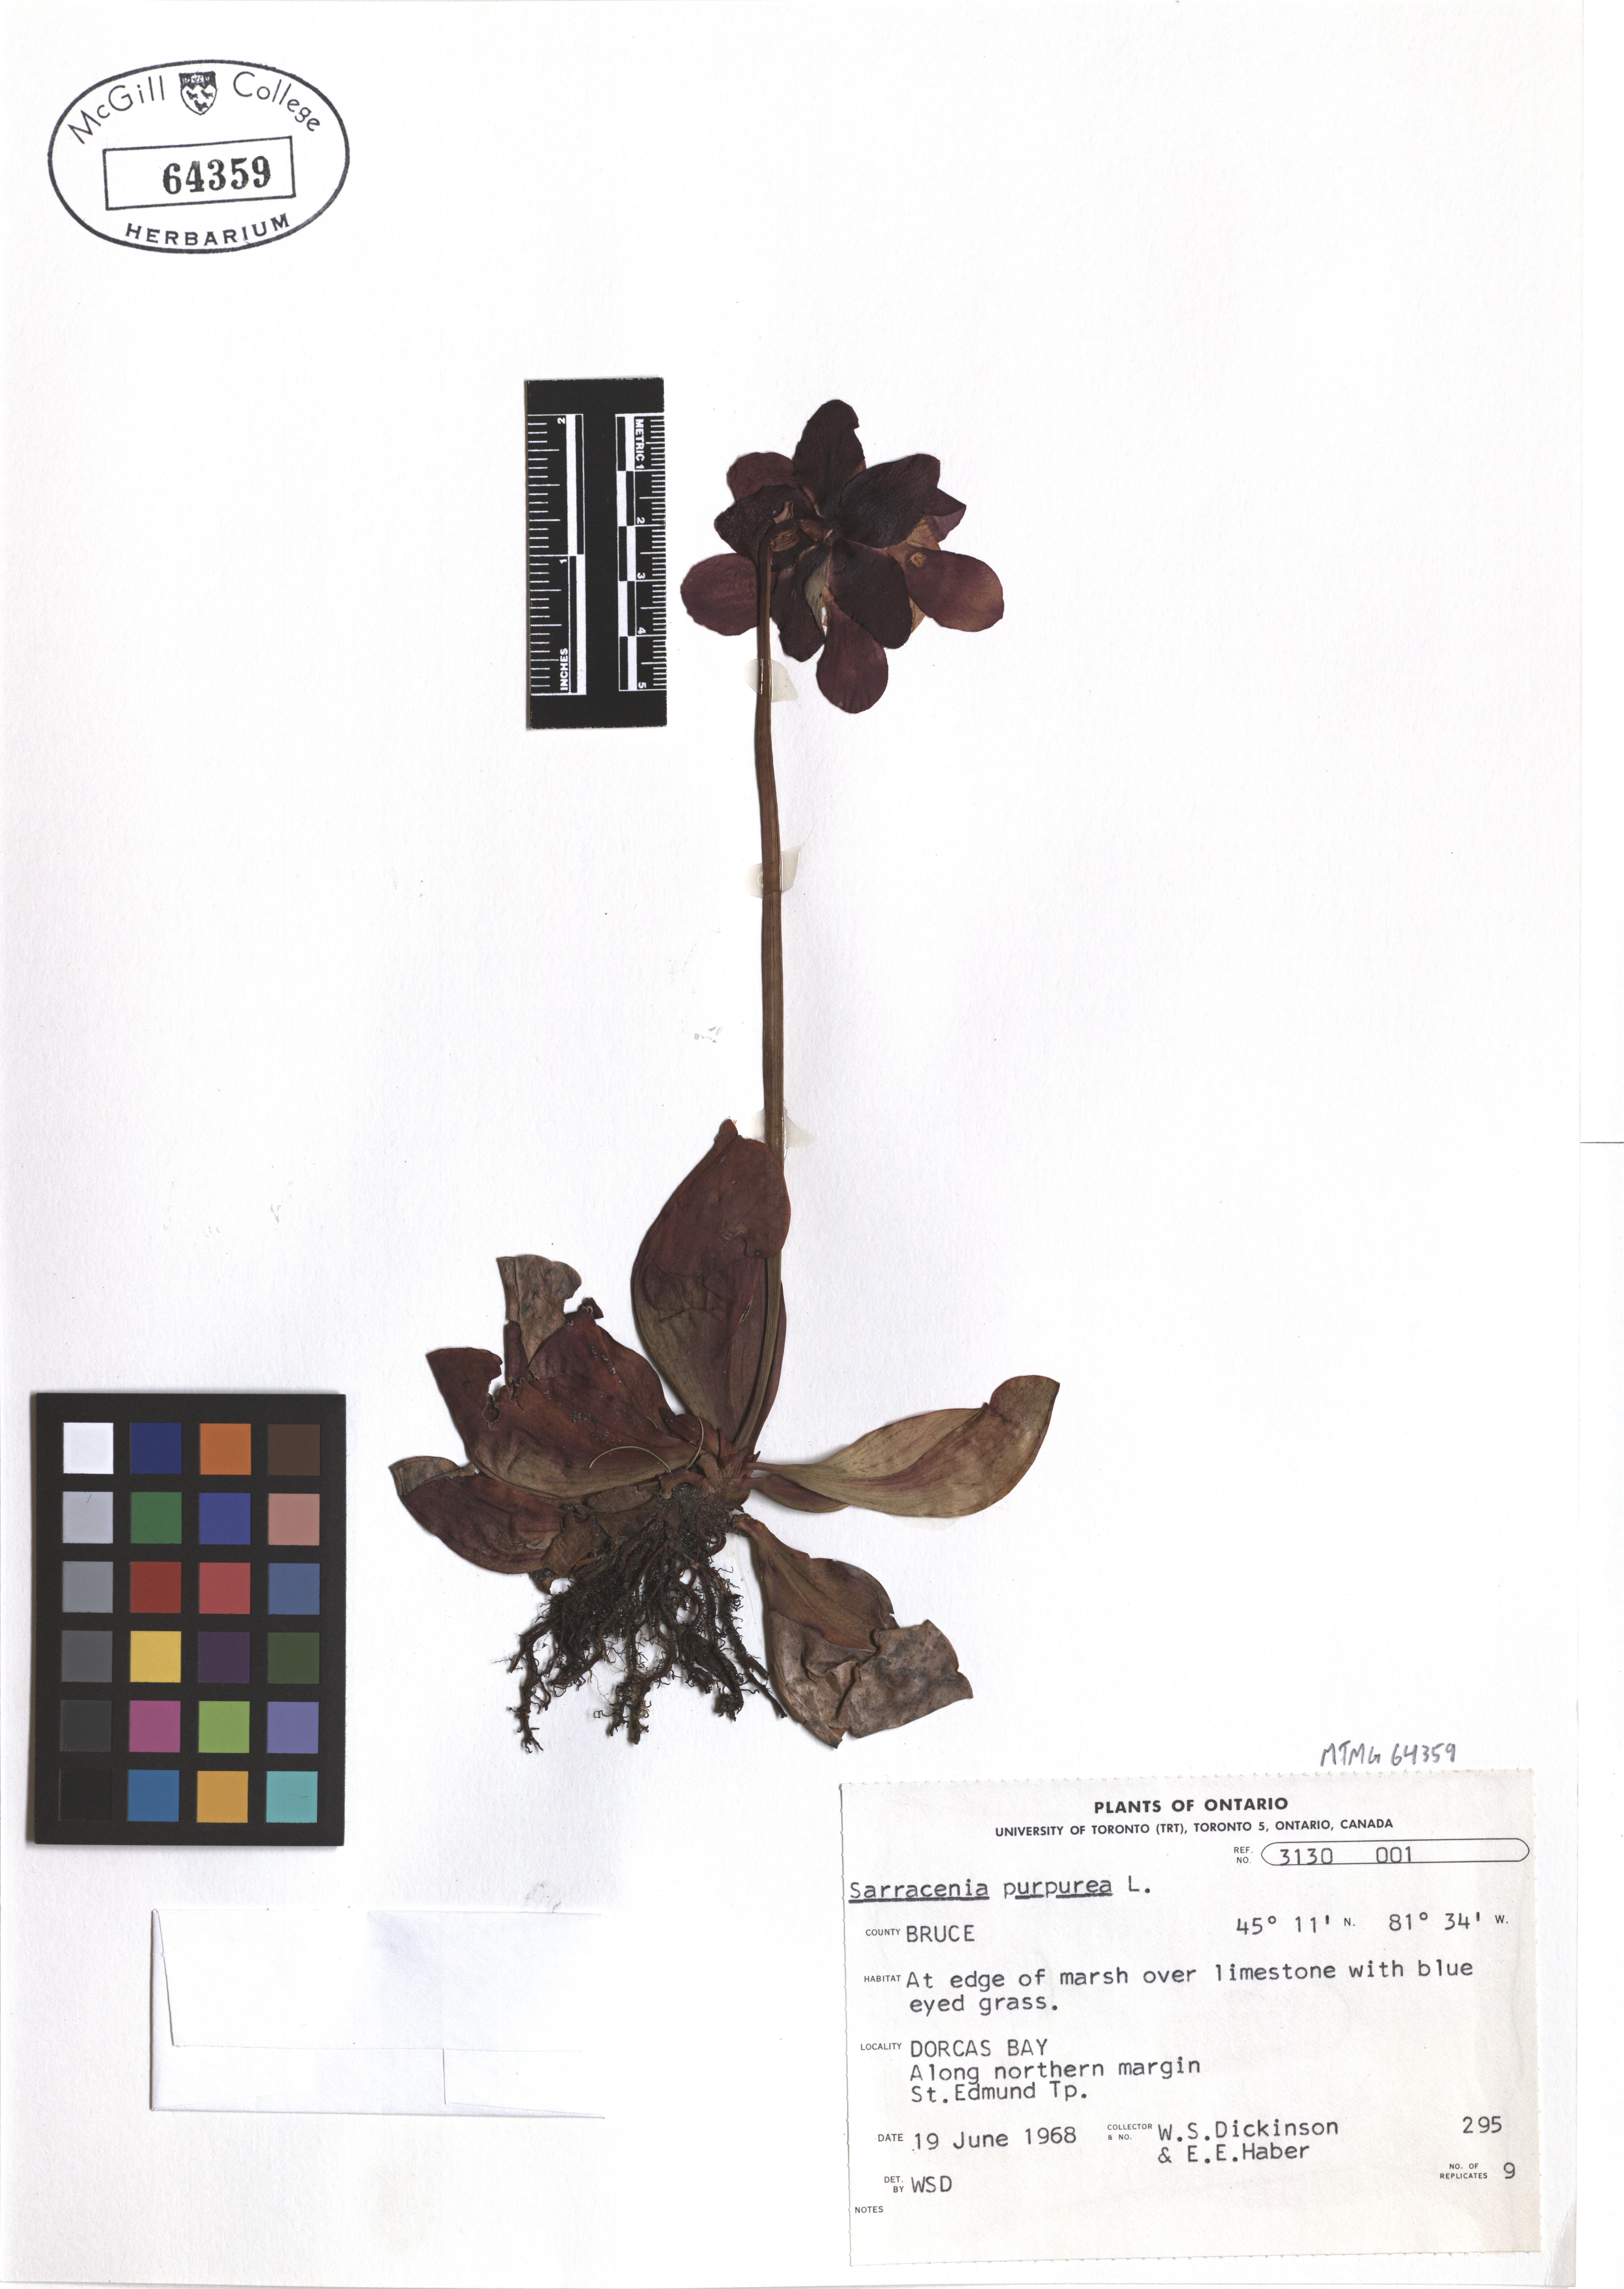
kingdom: Plantae
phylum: Tracheophyta
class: Magnoliopsida
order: Ericales
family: Sarraceniaceae
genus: Sarracenia
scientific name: Sarracenia purpurea
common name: Pitcherplant
